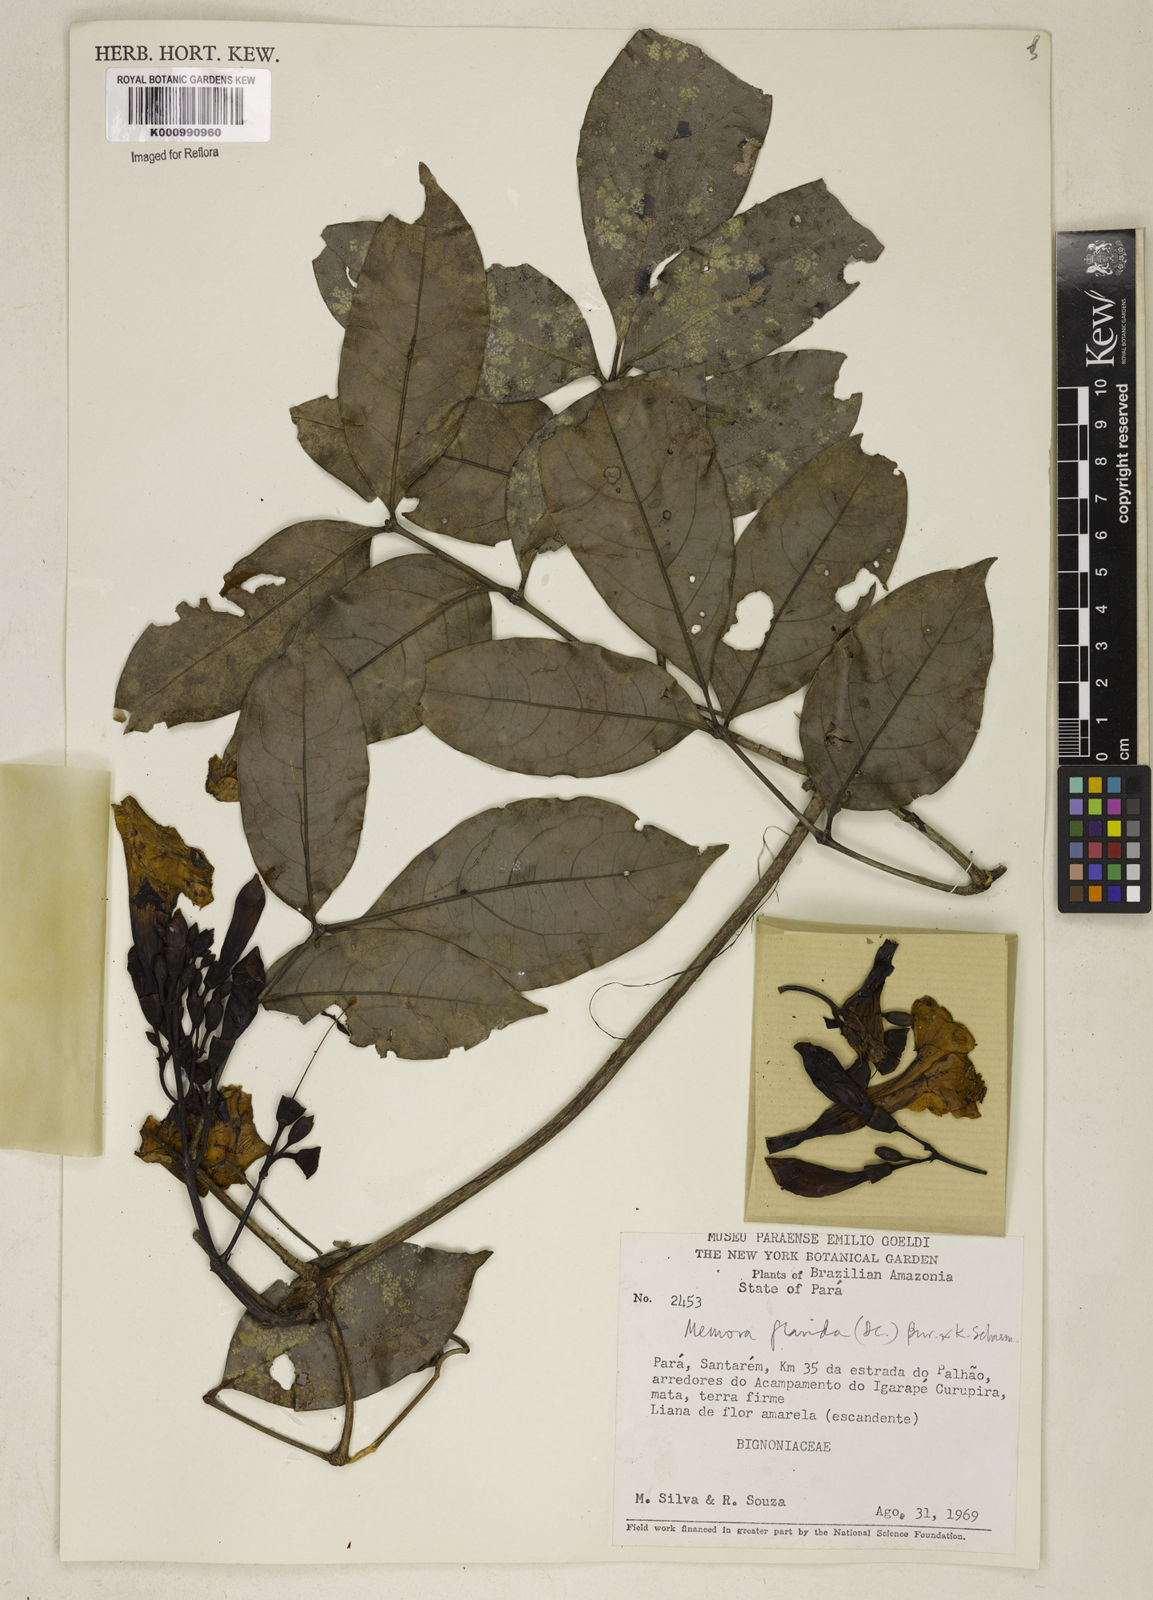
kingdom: Plantae
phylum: Tracheophyta
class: Magnoliopsida
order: Lamiales
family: Bignoniaceae
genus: Adenocalymma
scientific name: Adenocalymma neoflavidum
